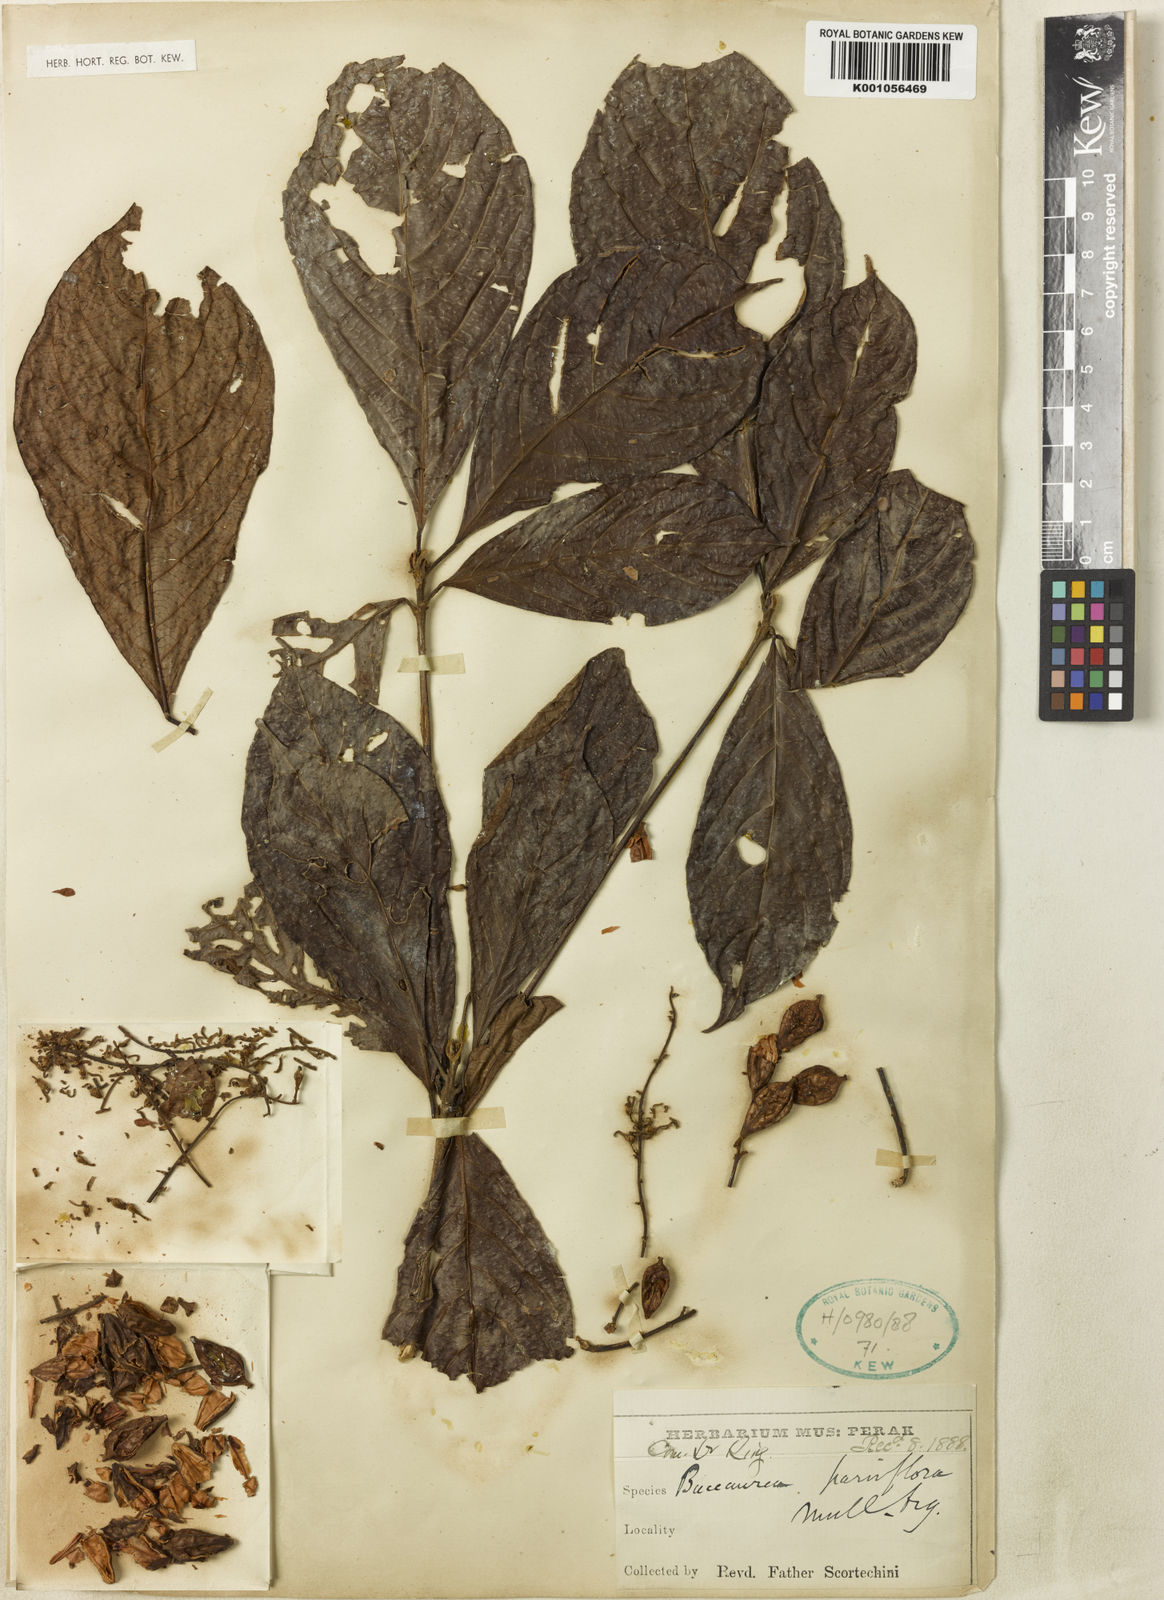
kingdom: Plantae
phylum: Tracheophyta
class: Magnoliopsida
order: Malpighiales
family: Phyllanthaceae
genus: Baccaurea
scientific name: Baccaurea
